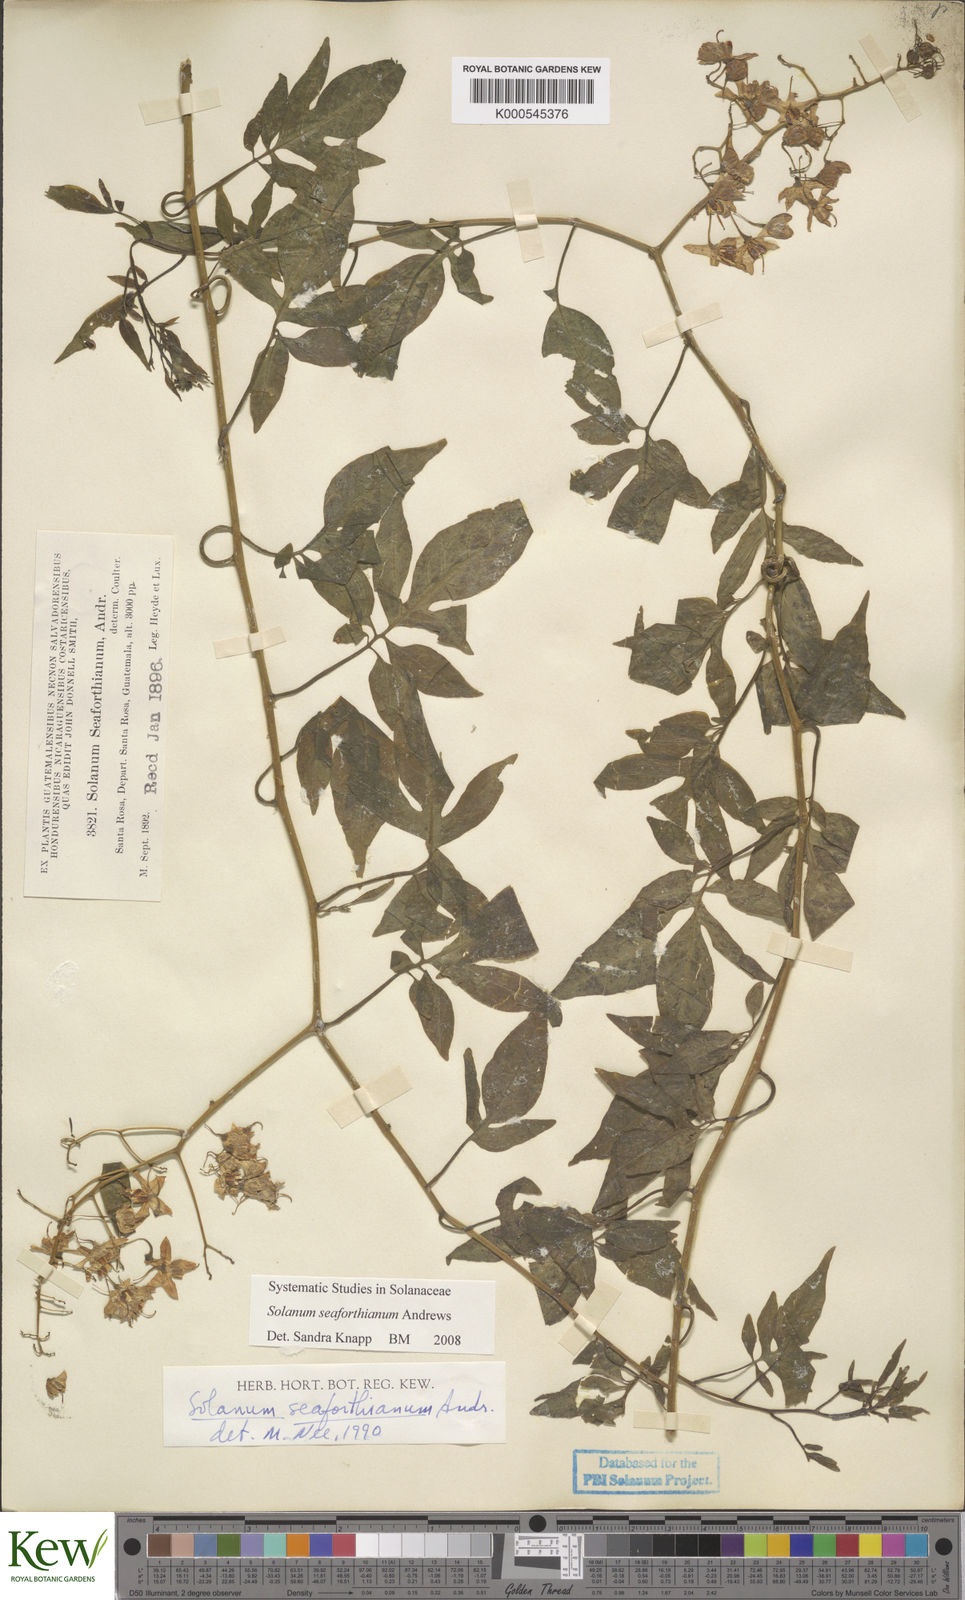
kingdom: Plantae
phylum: Tracheophyta
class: Magnoliopsida
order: Solanales
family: Solanaceae
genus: Solanum
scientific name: Solanum seaforthianum
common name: Brazilian nightshade
